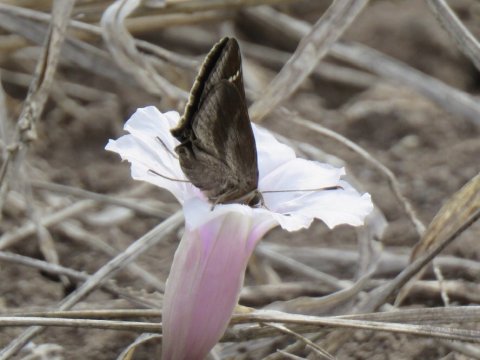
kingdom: Animalia
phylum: Arthropoda
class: Insecta
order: Lepidoptera
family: Hesperiidae
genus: Lerema
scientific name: Lerema accius
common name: Clouded Skipper
